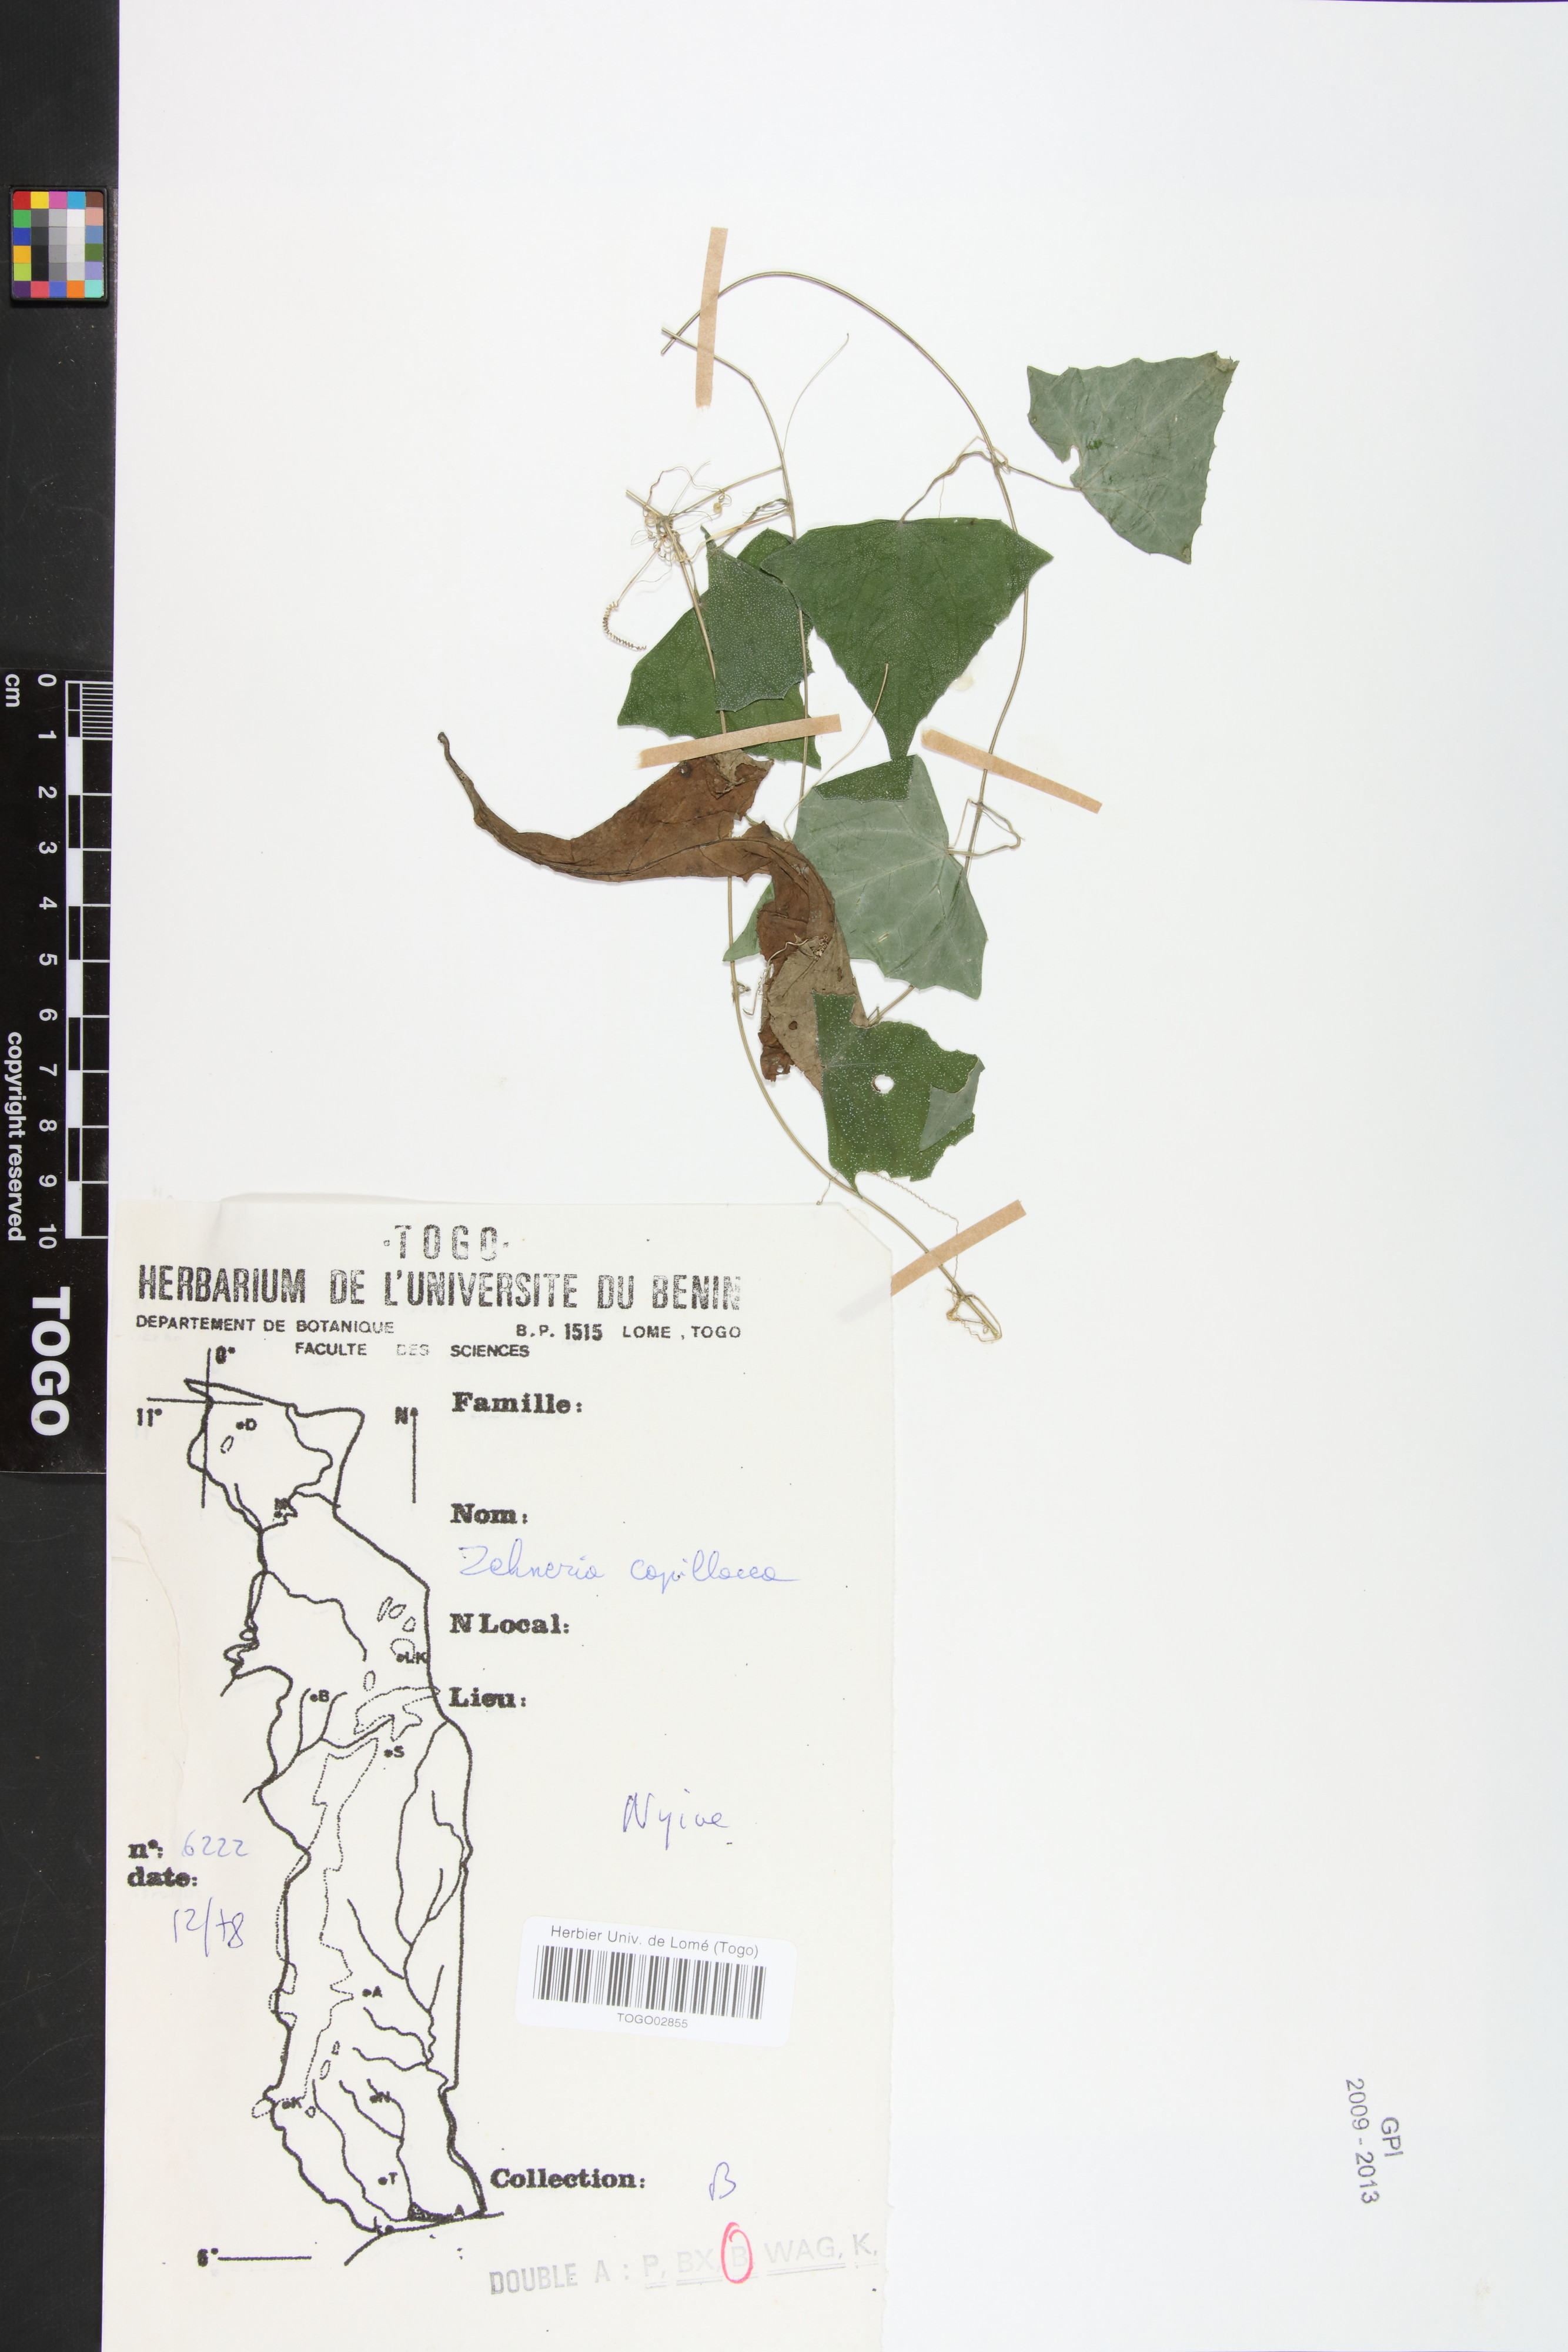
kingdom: Plantae
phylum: Tracheophyta
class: Magnoliopsida
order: Cucurbitales
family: Cucurbitaceae
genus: Zehneria
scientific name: Zehneria capillacea
